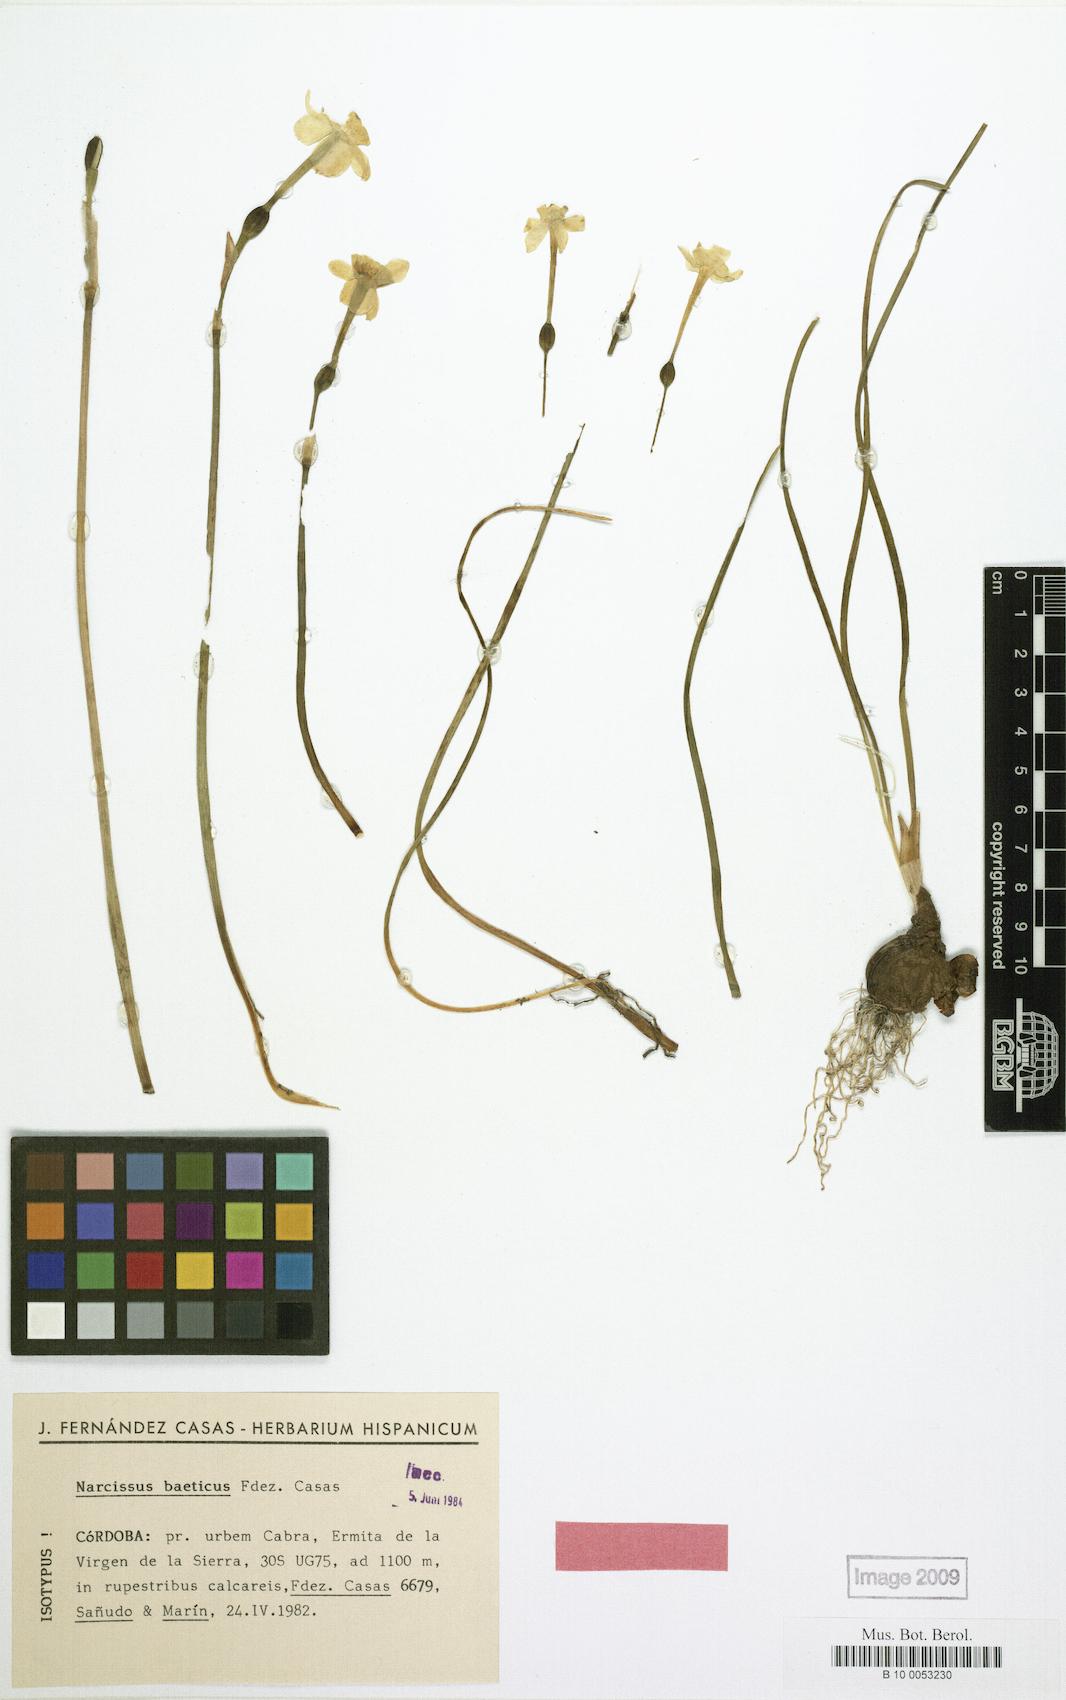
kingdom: Plantae
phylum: Tracheophyta
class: Liliopsida
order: Asparagales
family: Amaryllidaceae
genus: Narcissus
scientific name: Narcissus assoanus
